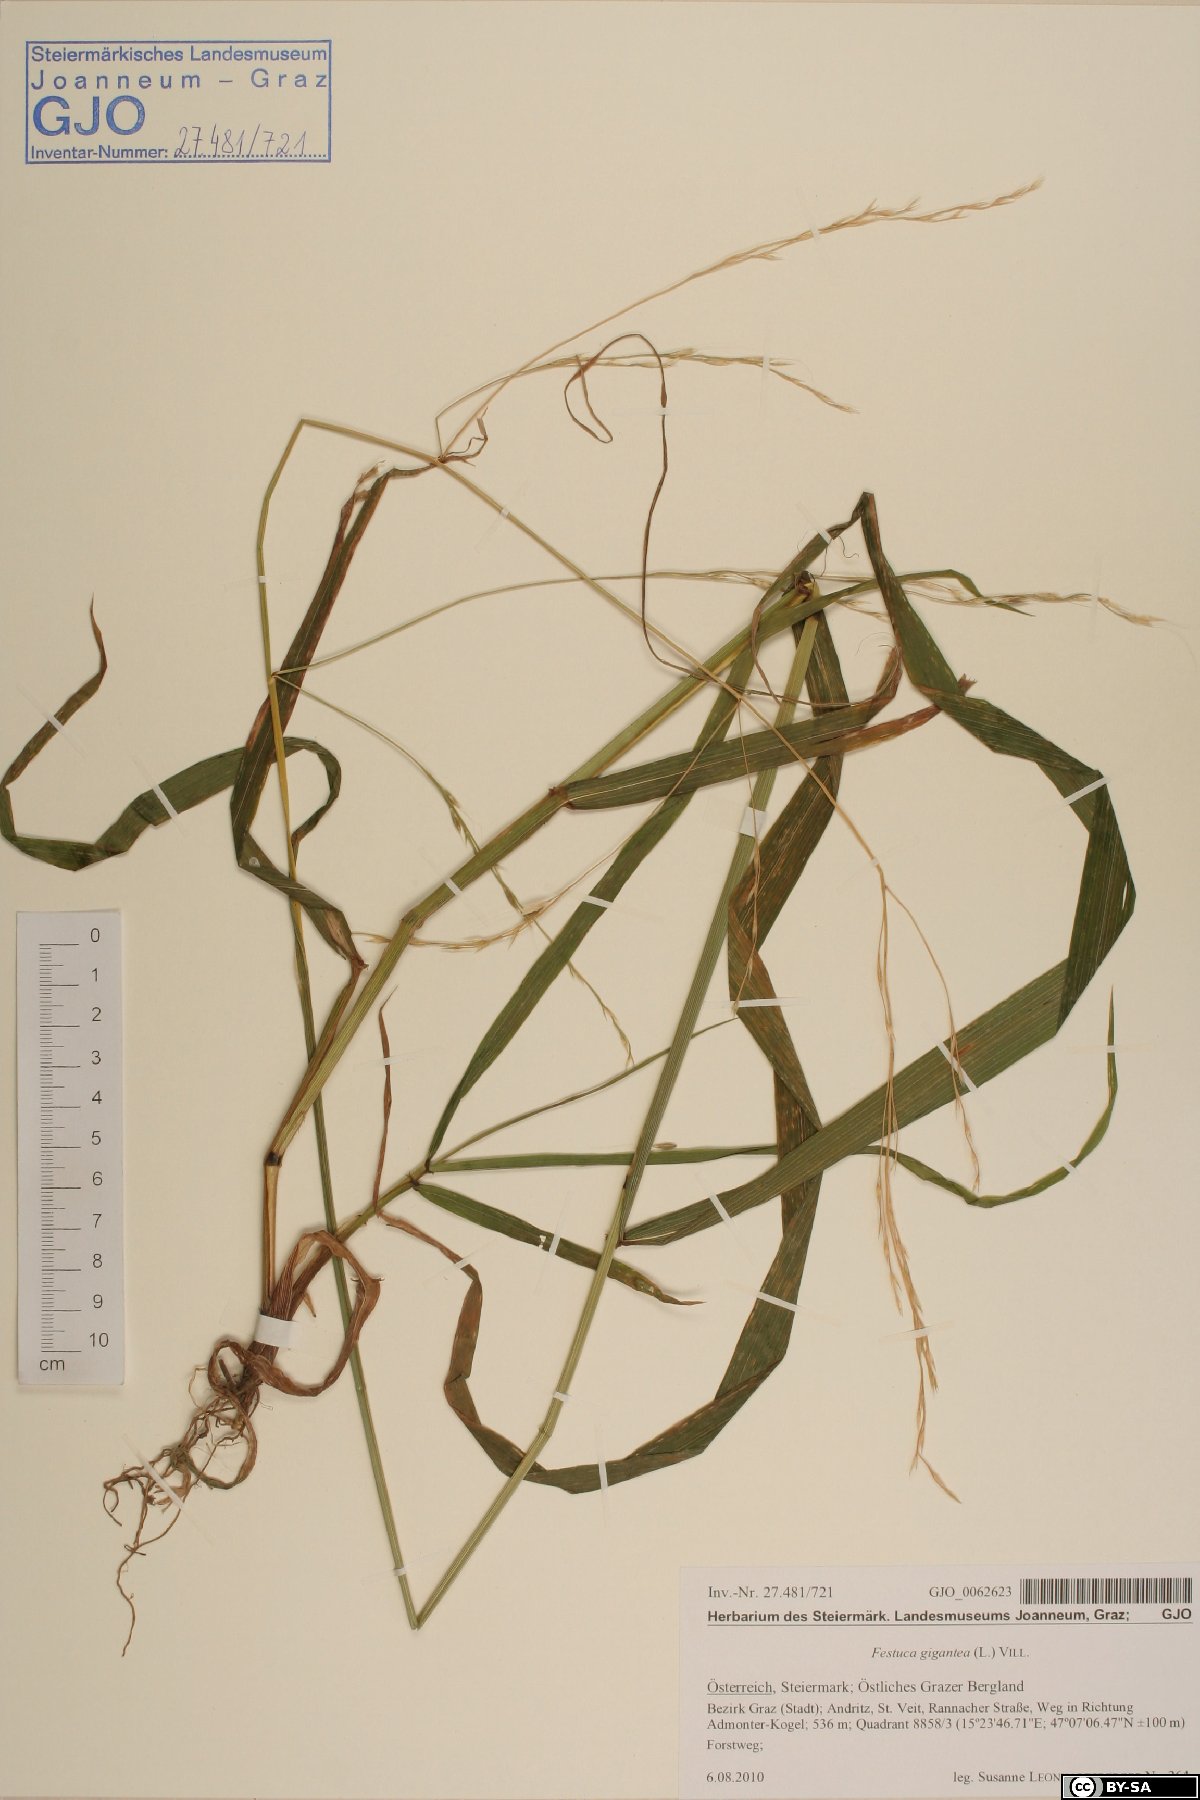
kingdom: Plantae
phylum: Tracheophyta
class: Liliopsida
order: Poales
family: Poaceae
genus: Lolium
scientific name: Lolium giganteum
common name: Giant fescue
